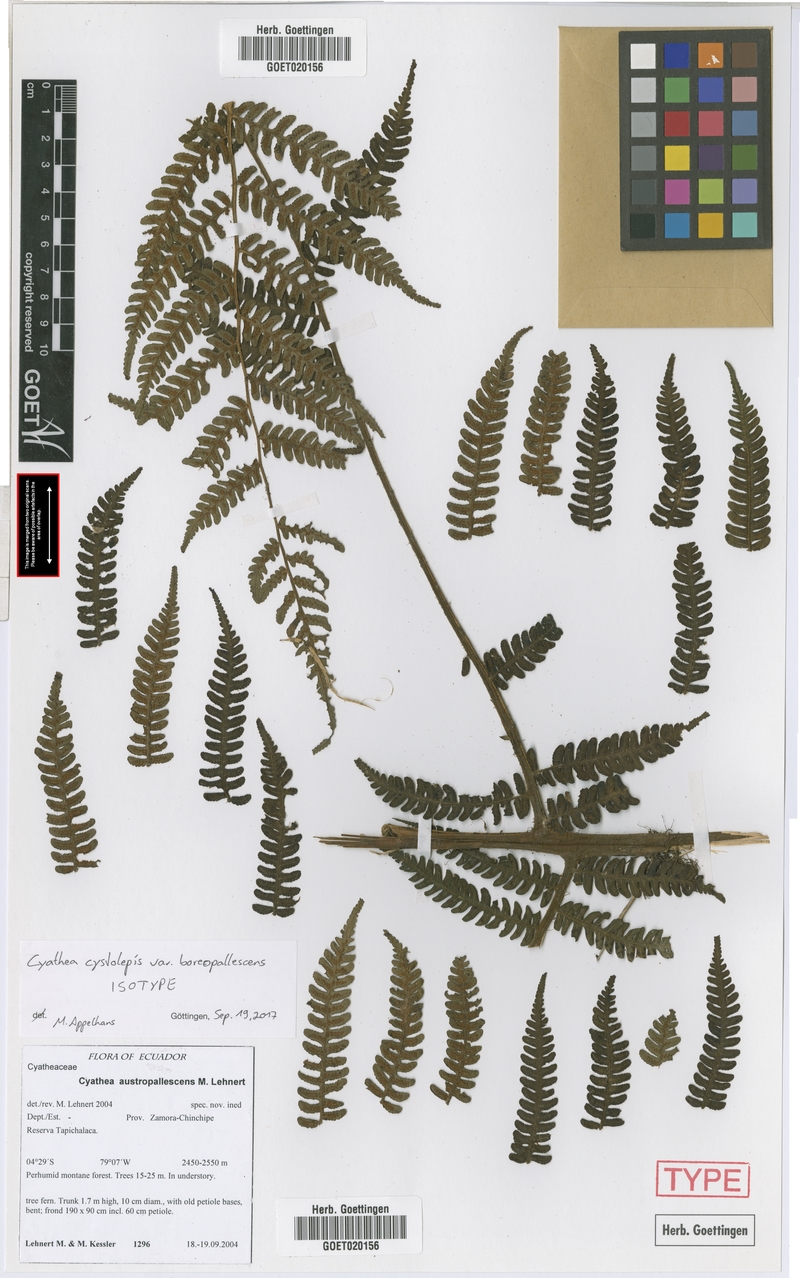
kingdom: Plantae
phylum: Tracheophyta
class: Polypodiopsida
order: Cyatheales
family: Cyatheaceae
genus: Cyathea
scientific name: Cyathea cystolepis
